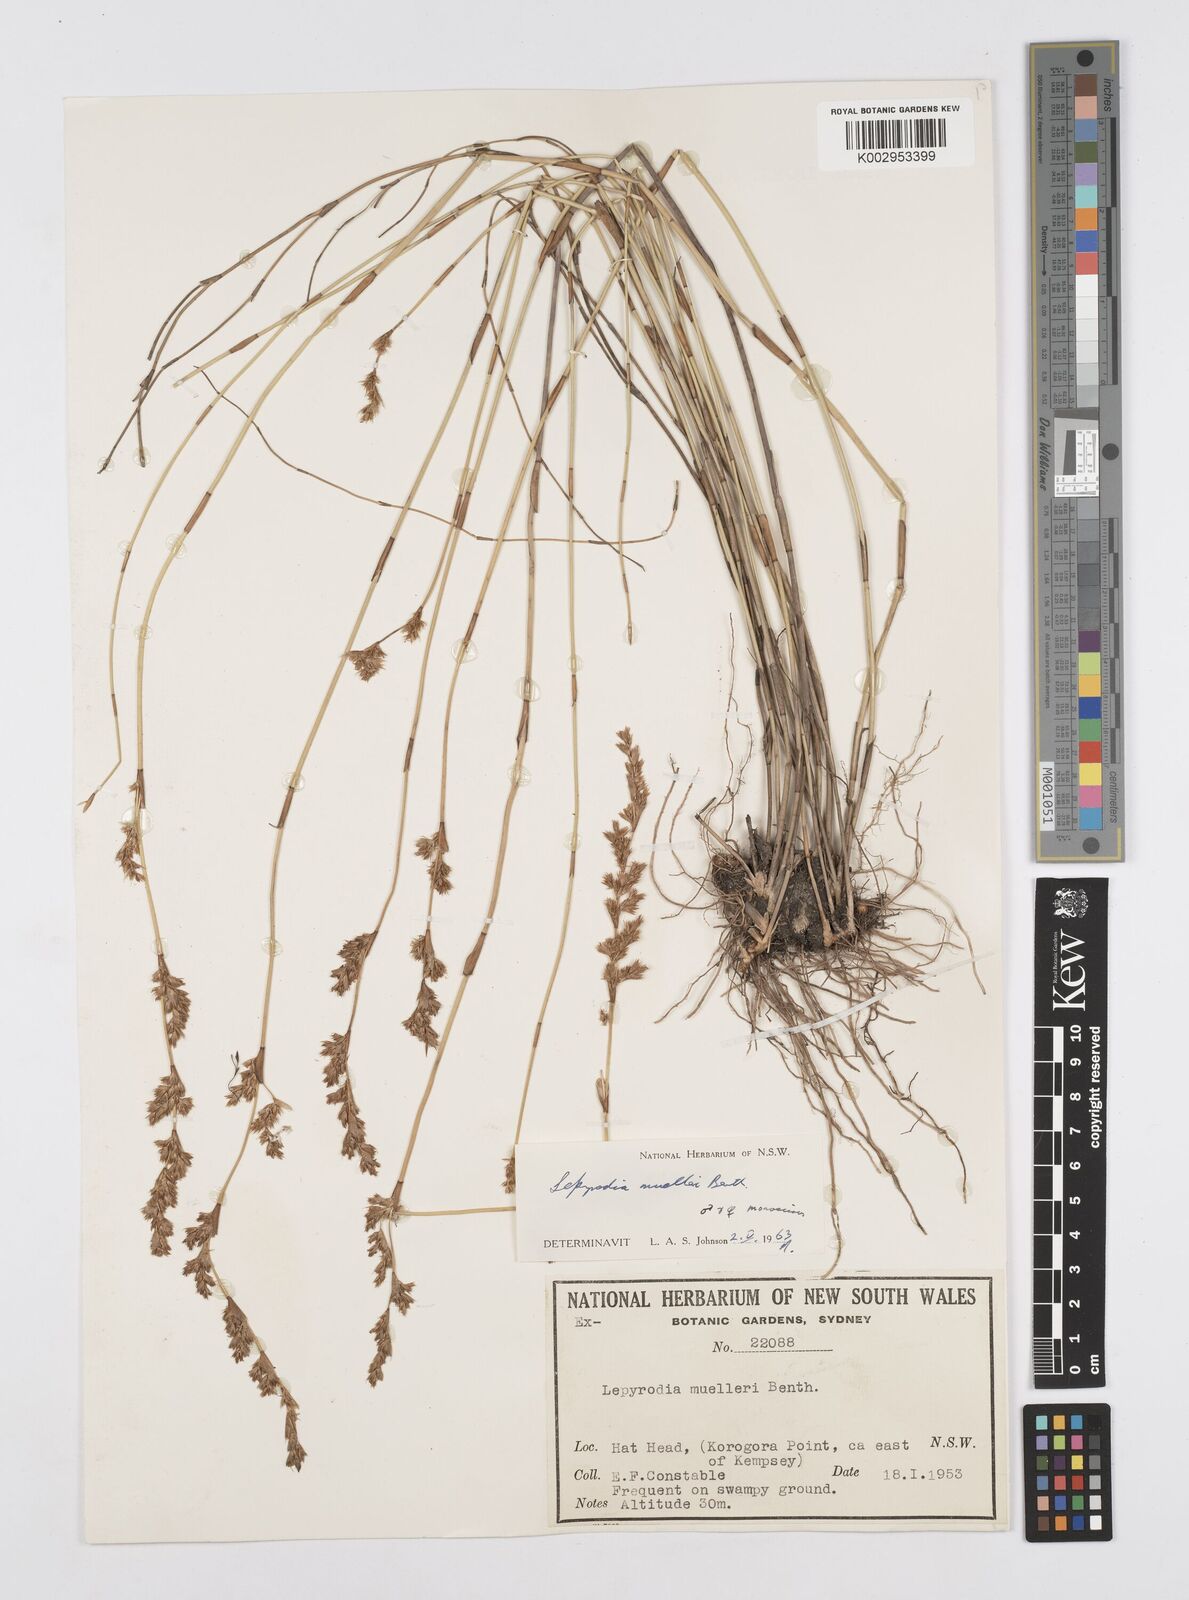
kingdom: Plantae
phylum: Tracheophyta
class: Liliopsida
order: Poales
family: Restionaceae
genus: Lepyrodia
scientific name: Lepyrodia muelleri
